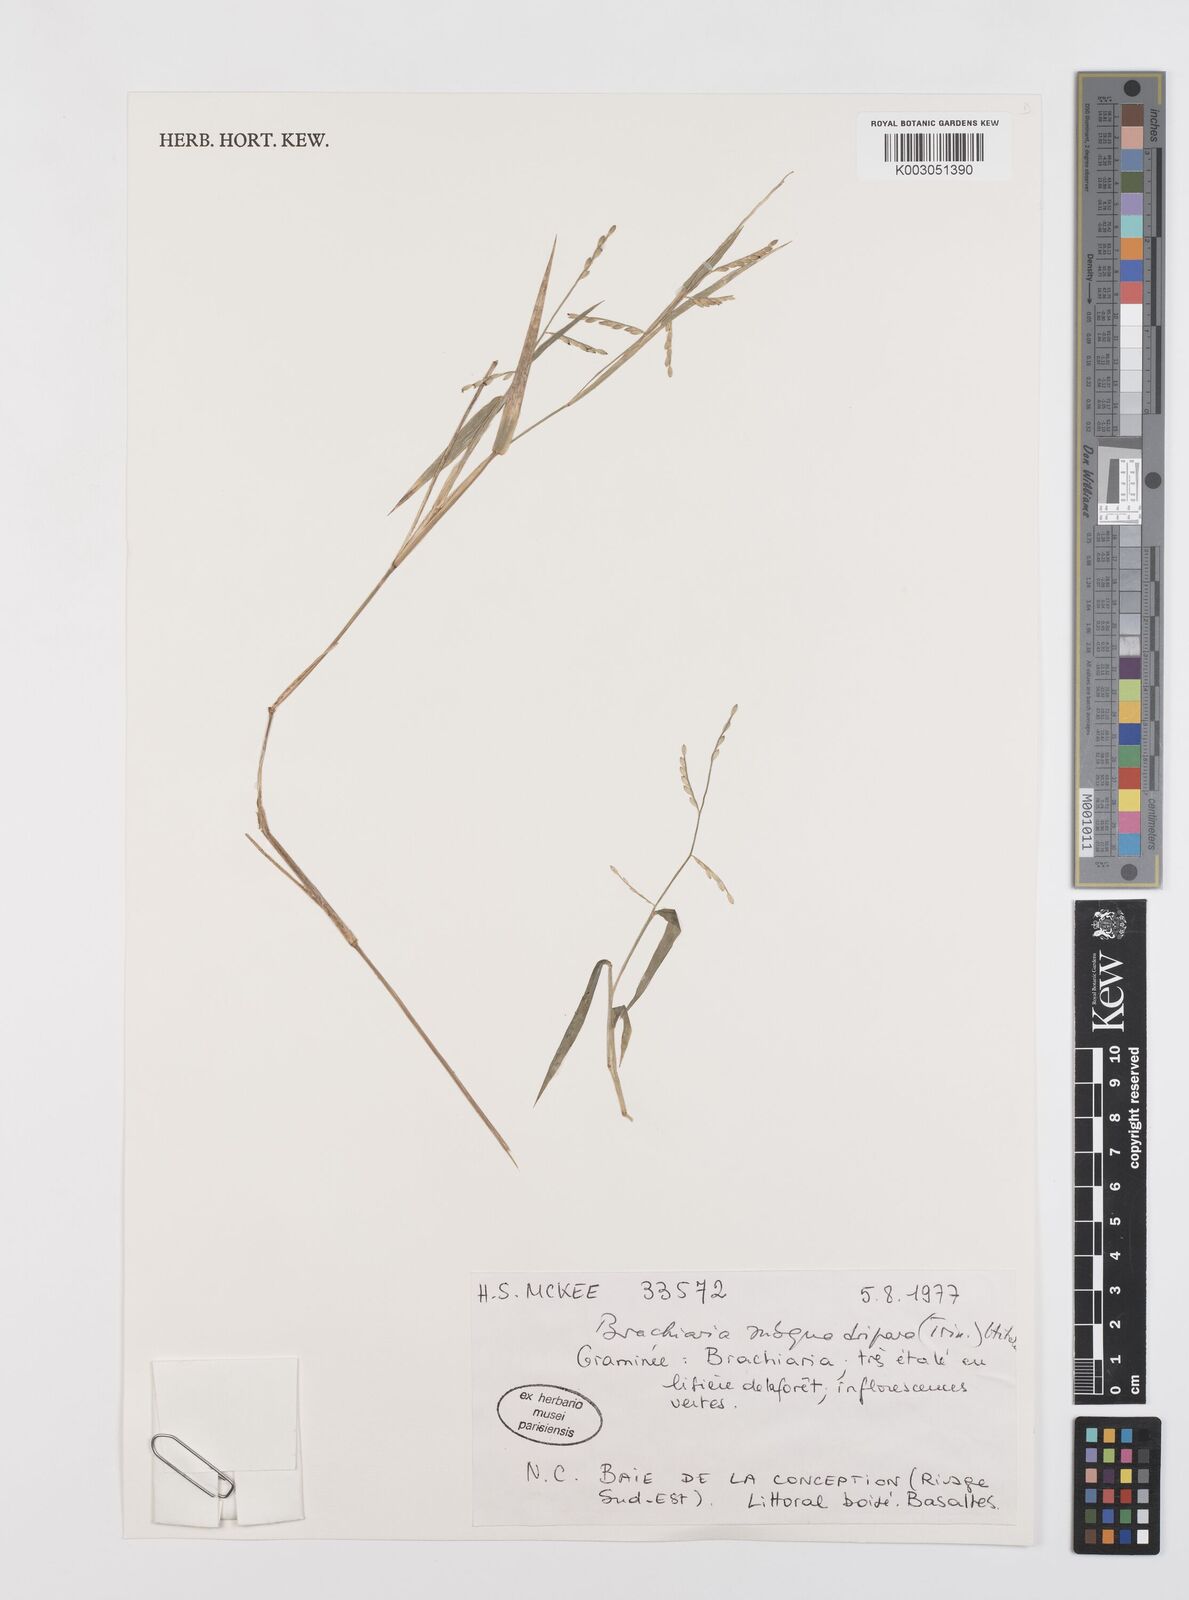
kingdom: Plantae
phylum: Tracheophyta
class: Liliopsida
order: Poales
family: Poaceae
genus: Urochloa
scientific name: Urochloa subquadripara
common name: Armgrass millet
